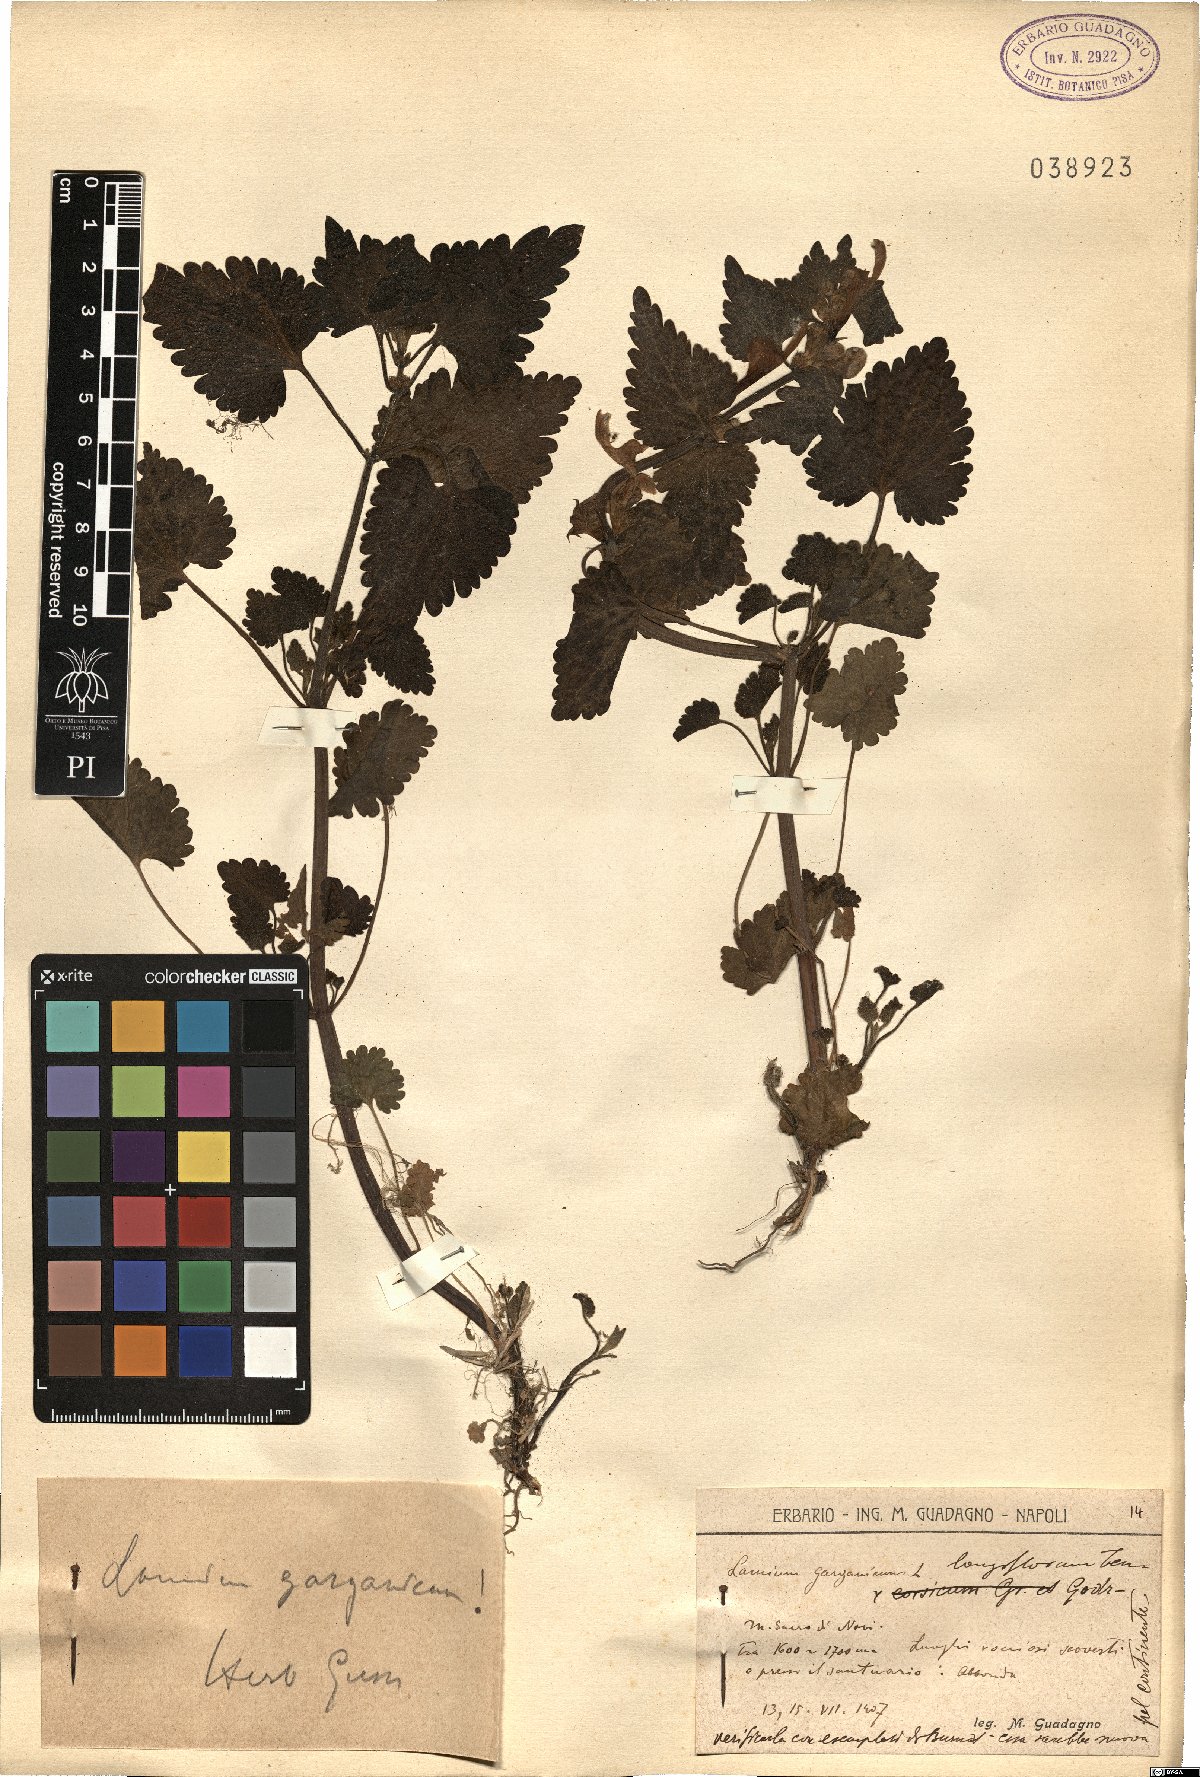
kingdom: Plantae
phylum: Tracheophyta
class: Magnoliopsida
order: Lamiales
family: Lamiaceae
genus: Lamium
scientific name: Lamium garganicum
